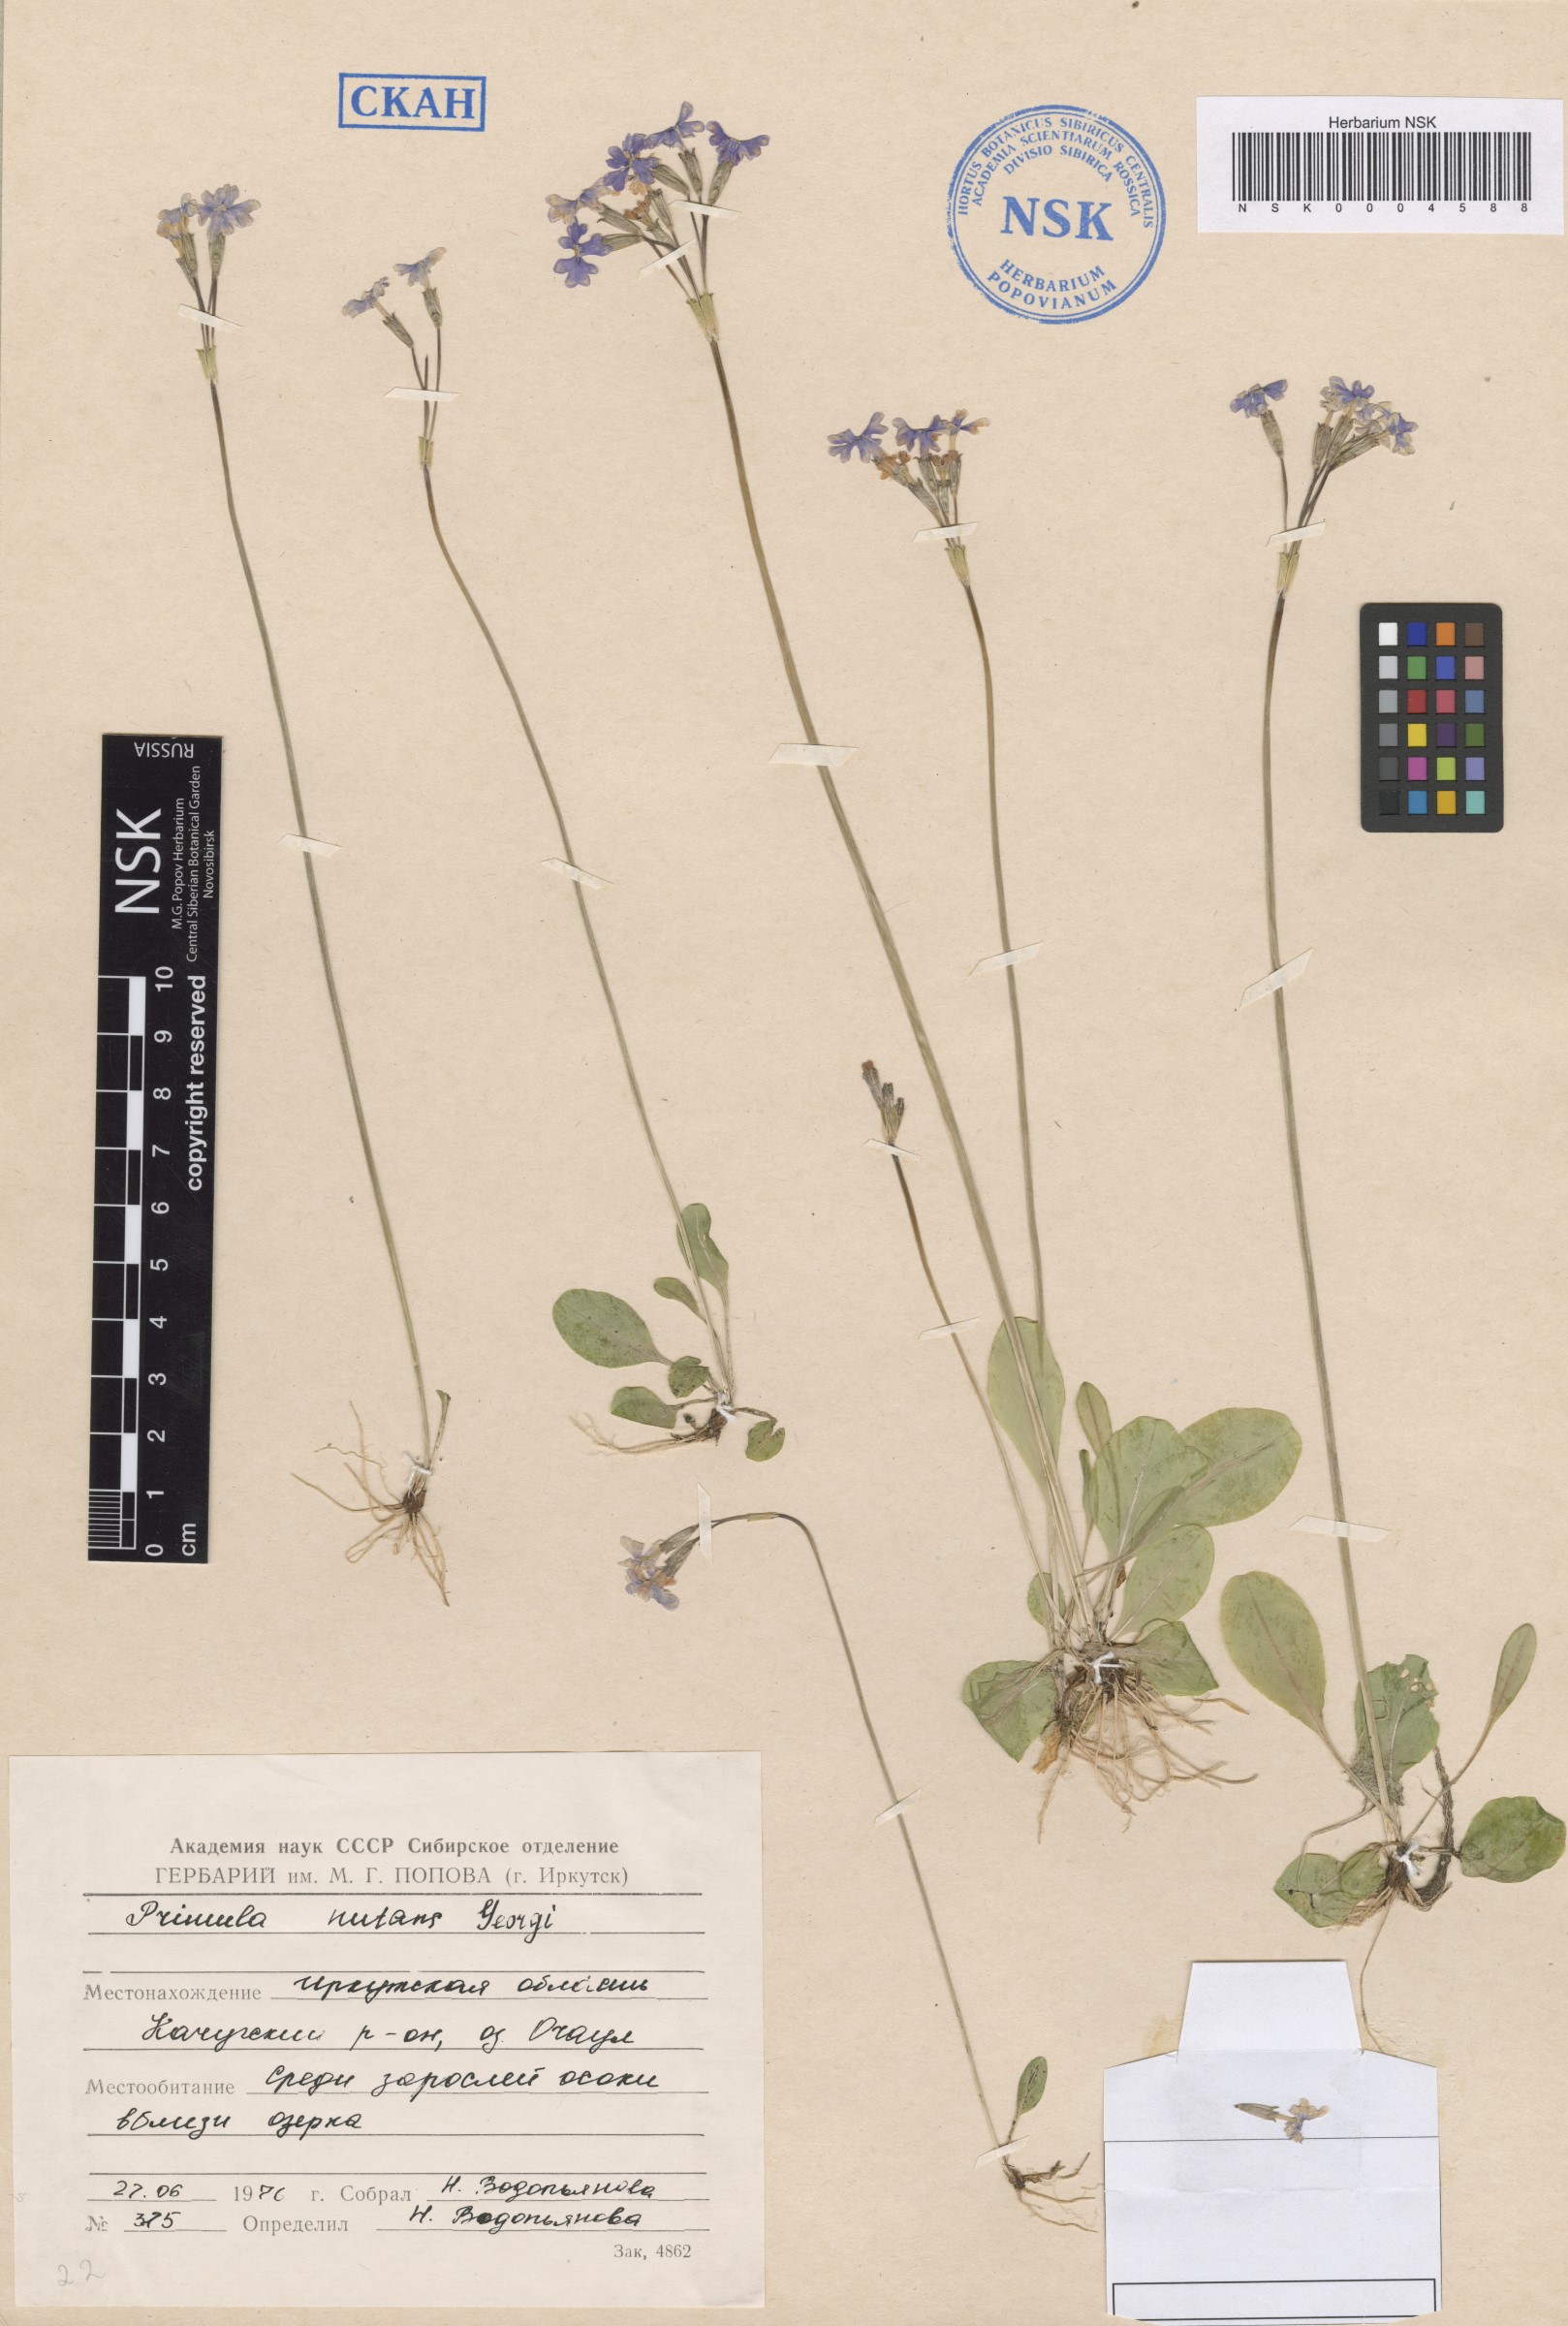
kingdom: Plantae
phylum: Tracheophyta
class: Magnoliopsida
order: Ericales
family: Primulaceae
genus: Primula
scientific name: Primula nutans
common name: Siberian primrose
